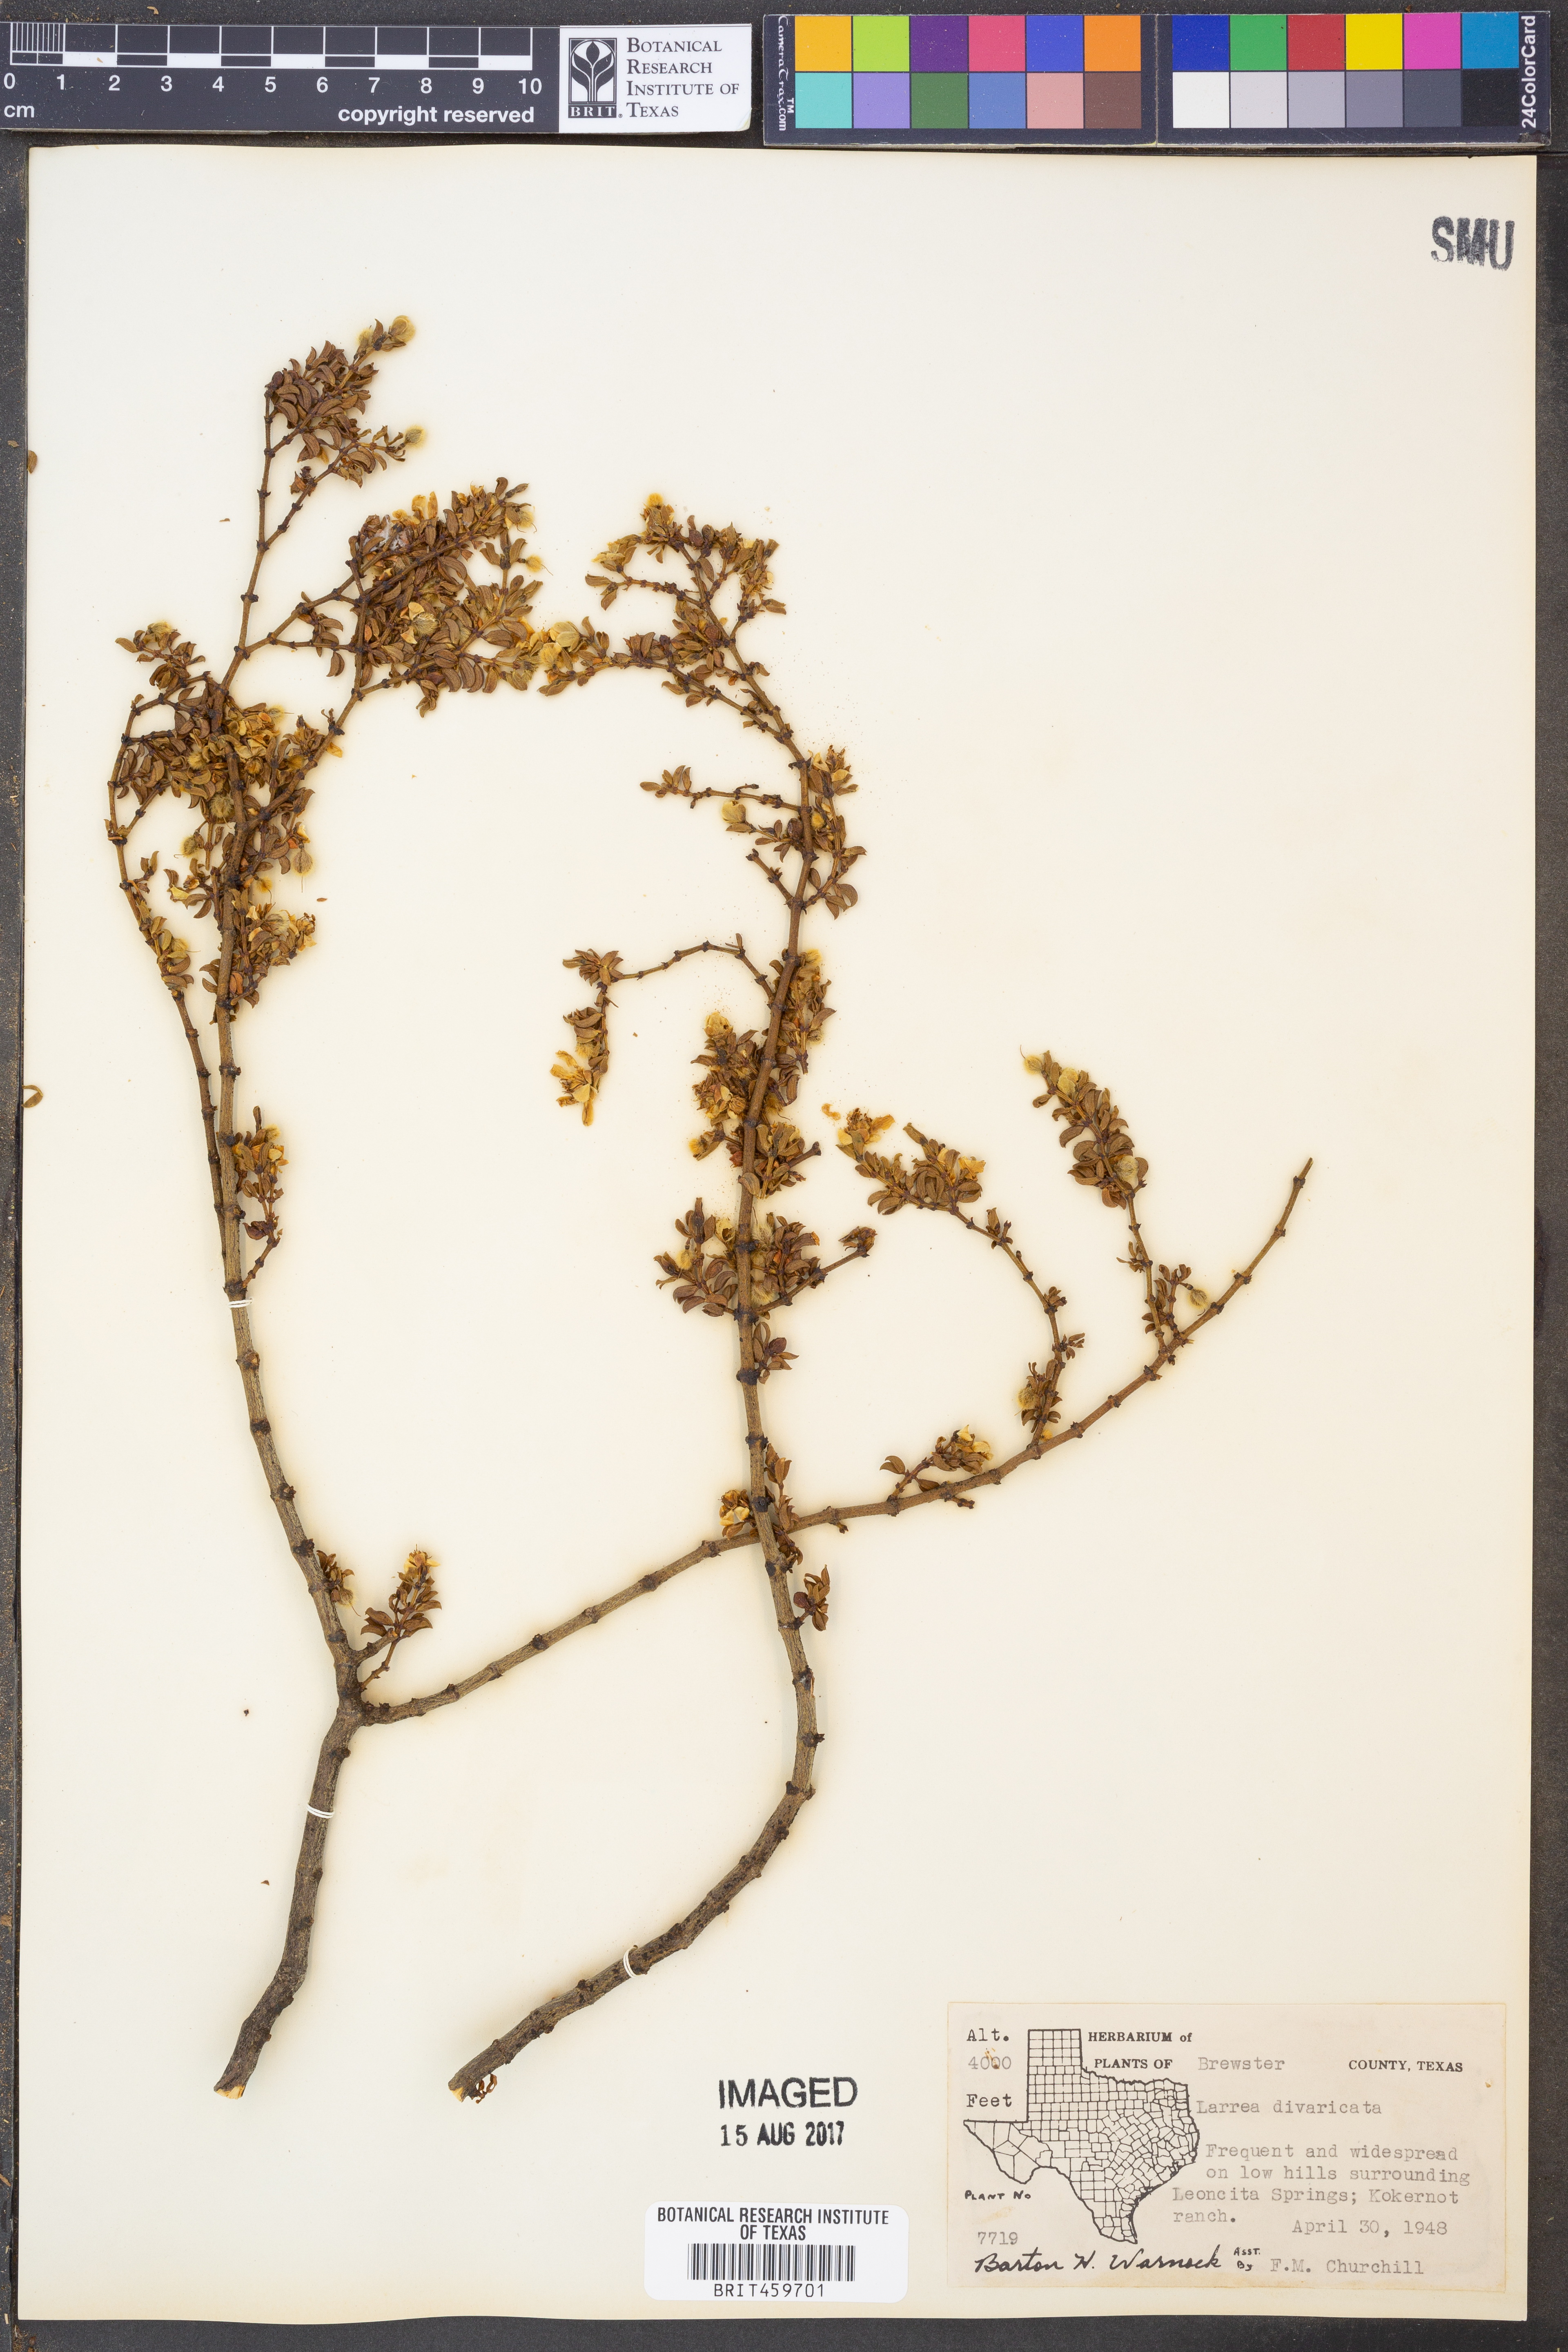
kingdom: Plantae
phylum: Tracheophyta
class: Magnoliopsida
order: Zygophyllales
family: Zygophyllaceae
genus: Larrea
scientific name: Larrea divaricata
